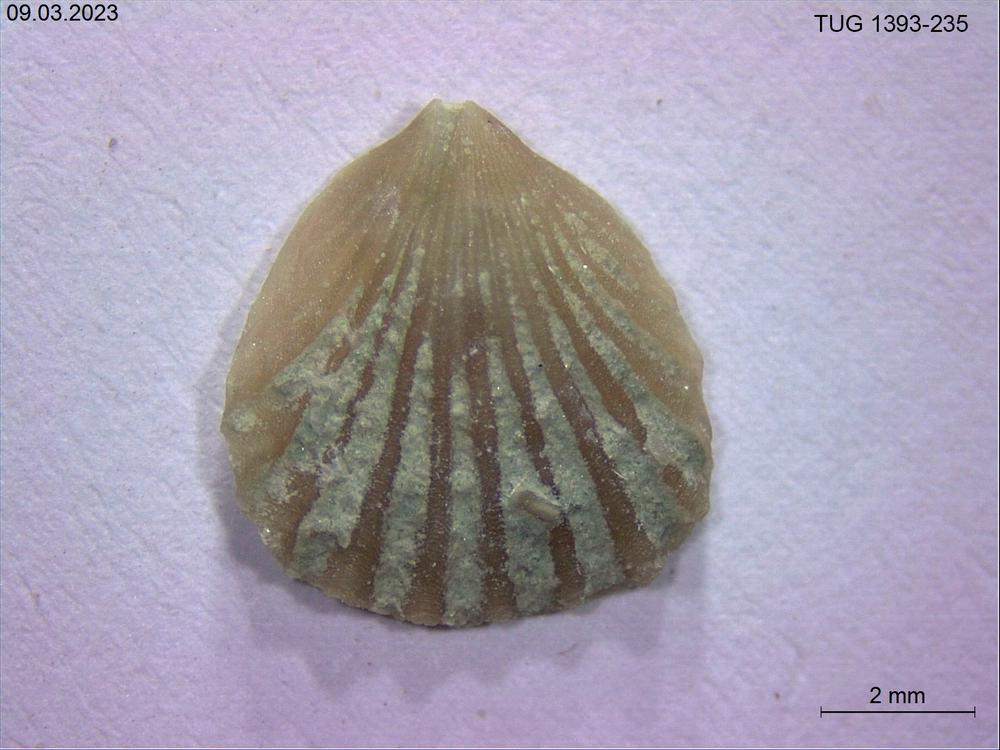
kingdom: Animalia
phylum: Brachiopoda
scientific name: Brachiopoda
